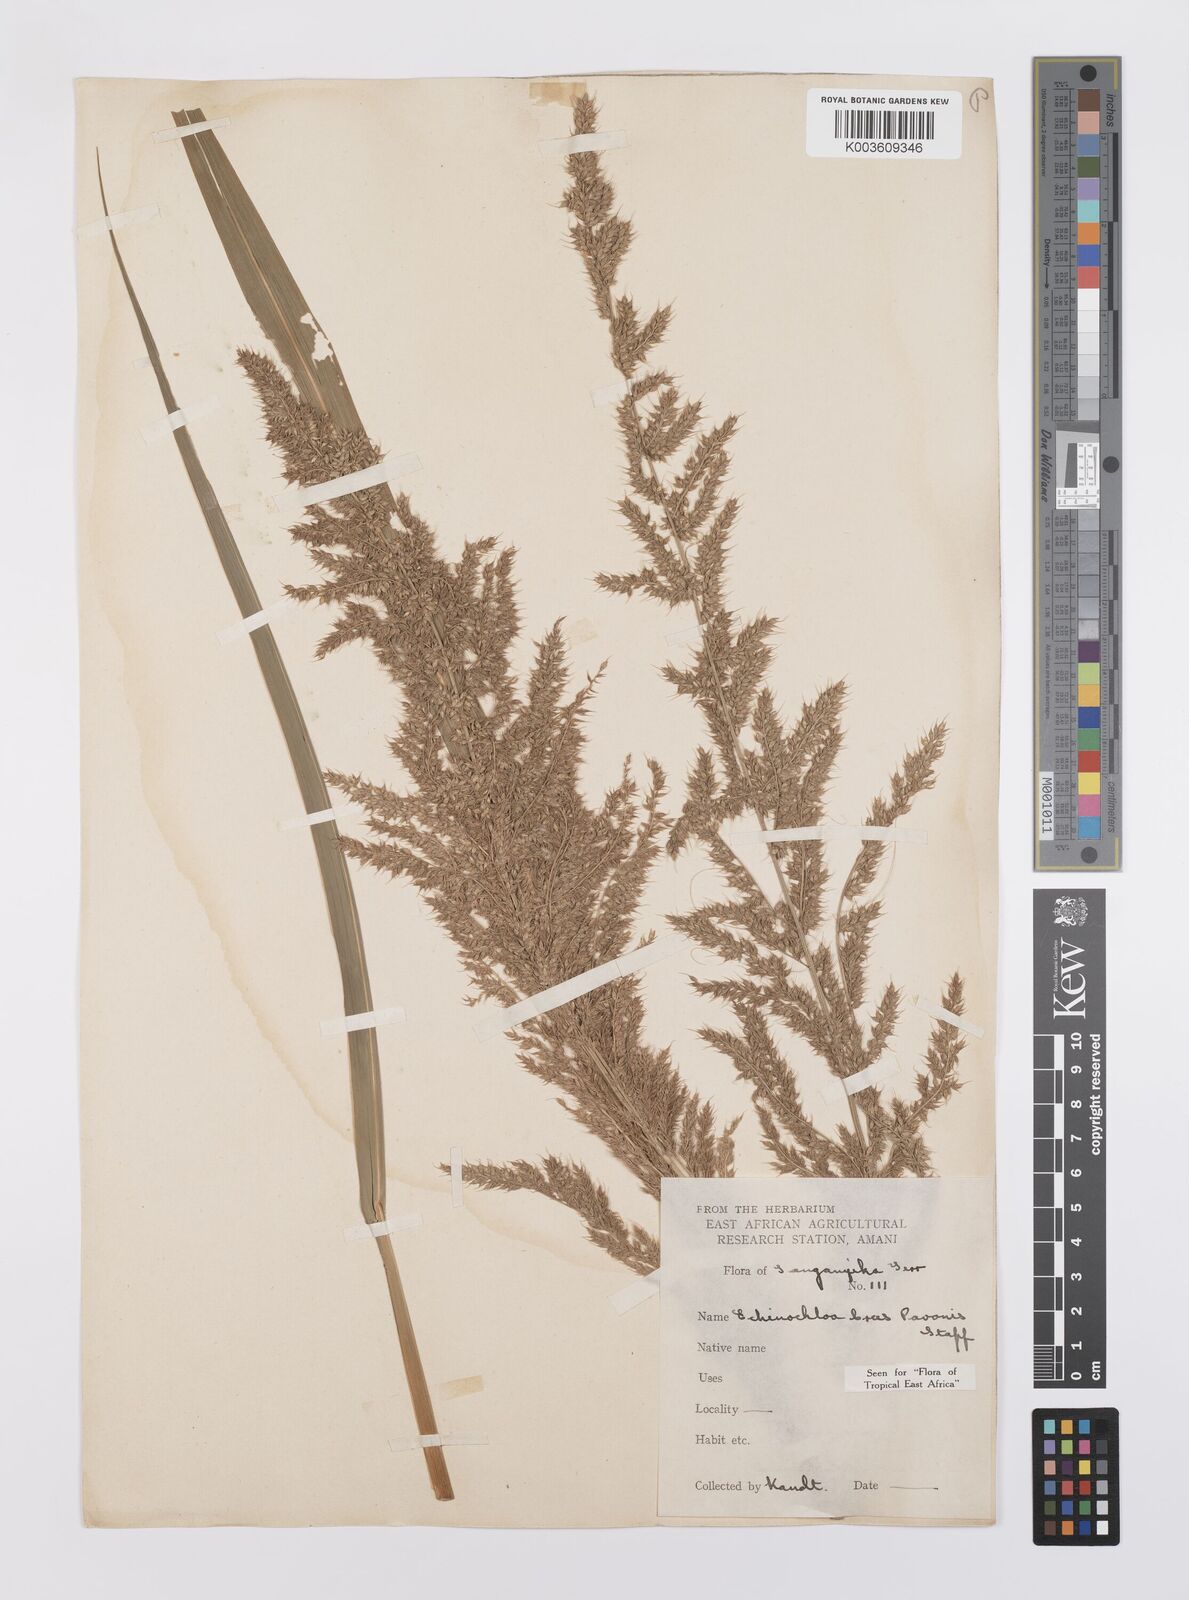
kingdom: Plantae
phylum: Tracheophyta
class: Liliopsida
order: Poales
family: Poaceae
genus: Echinochloa
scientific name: Echinochloa crus-pavonis
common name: Gulf cockspur grass
